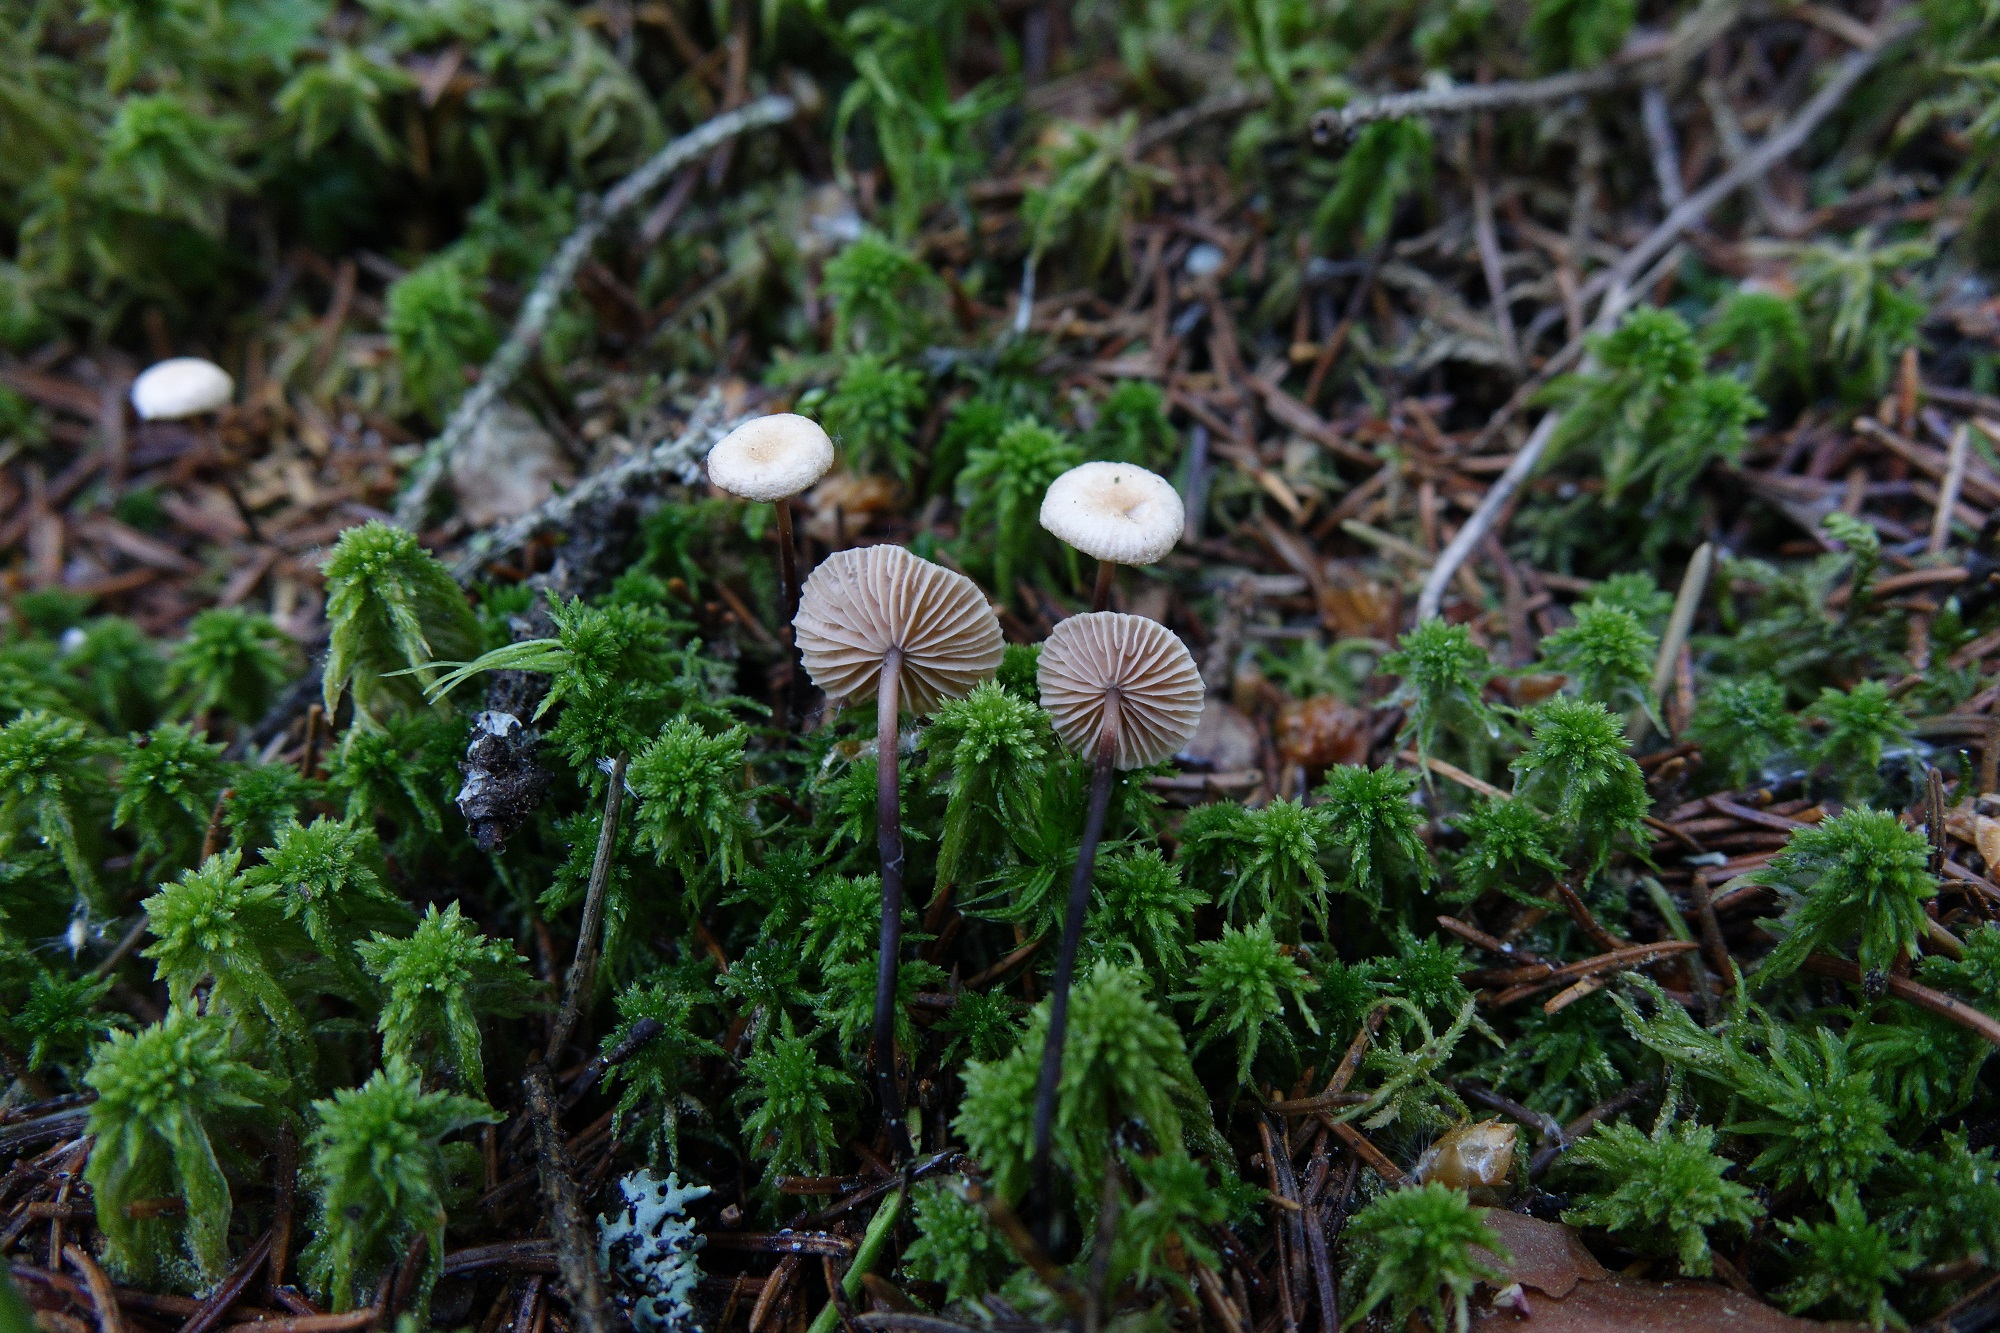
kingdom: Fungi
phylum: Basidiomycota
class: Agaricomycetes
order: Agaricales
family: Omphalotaceae
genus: Paragymnopus
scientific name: Paragymnopus perforans
